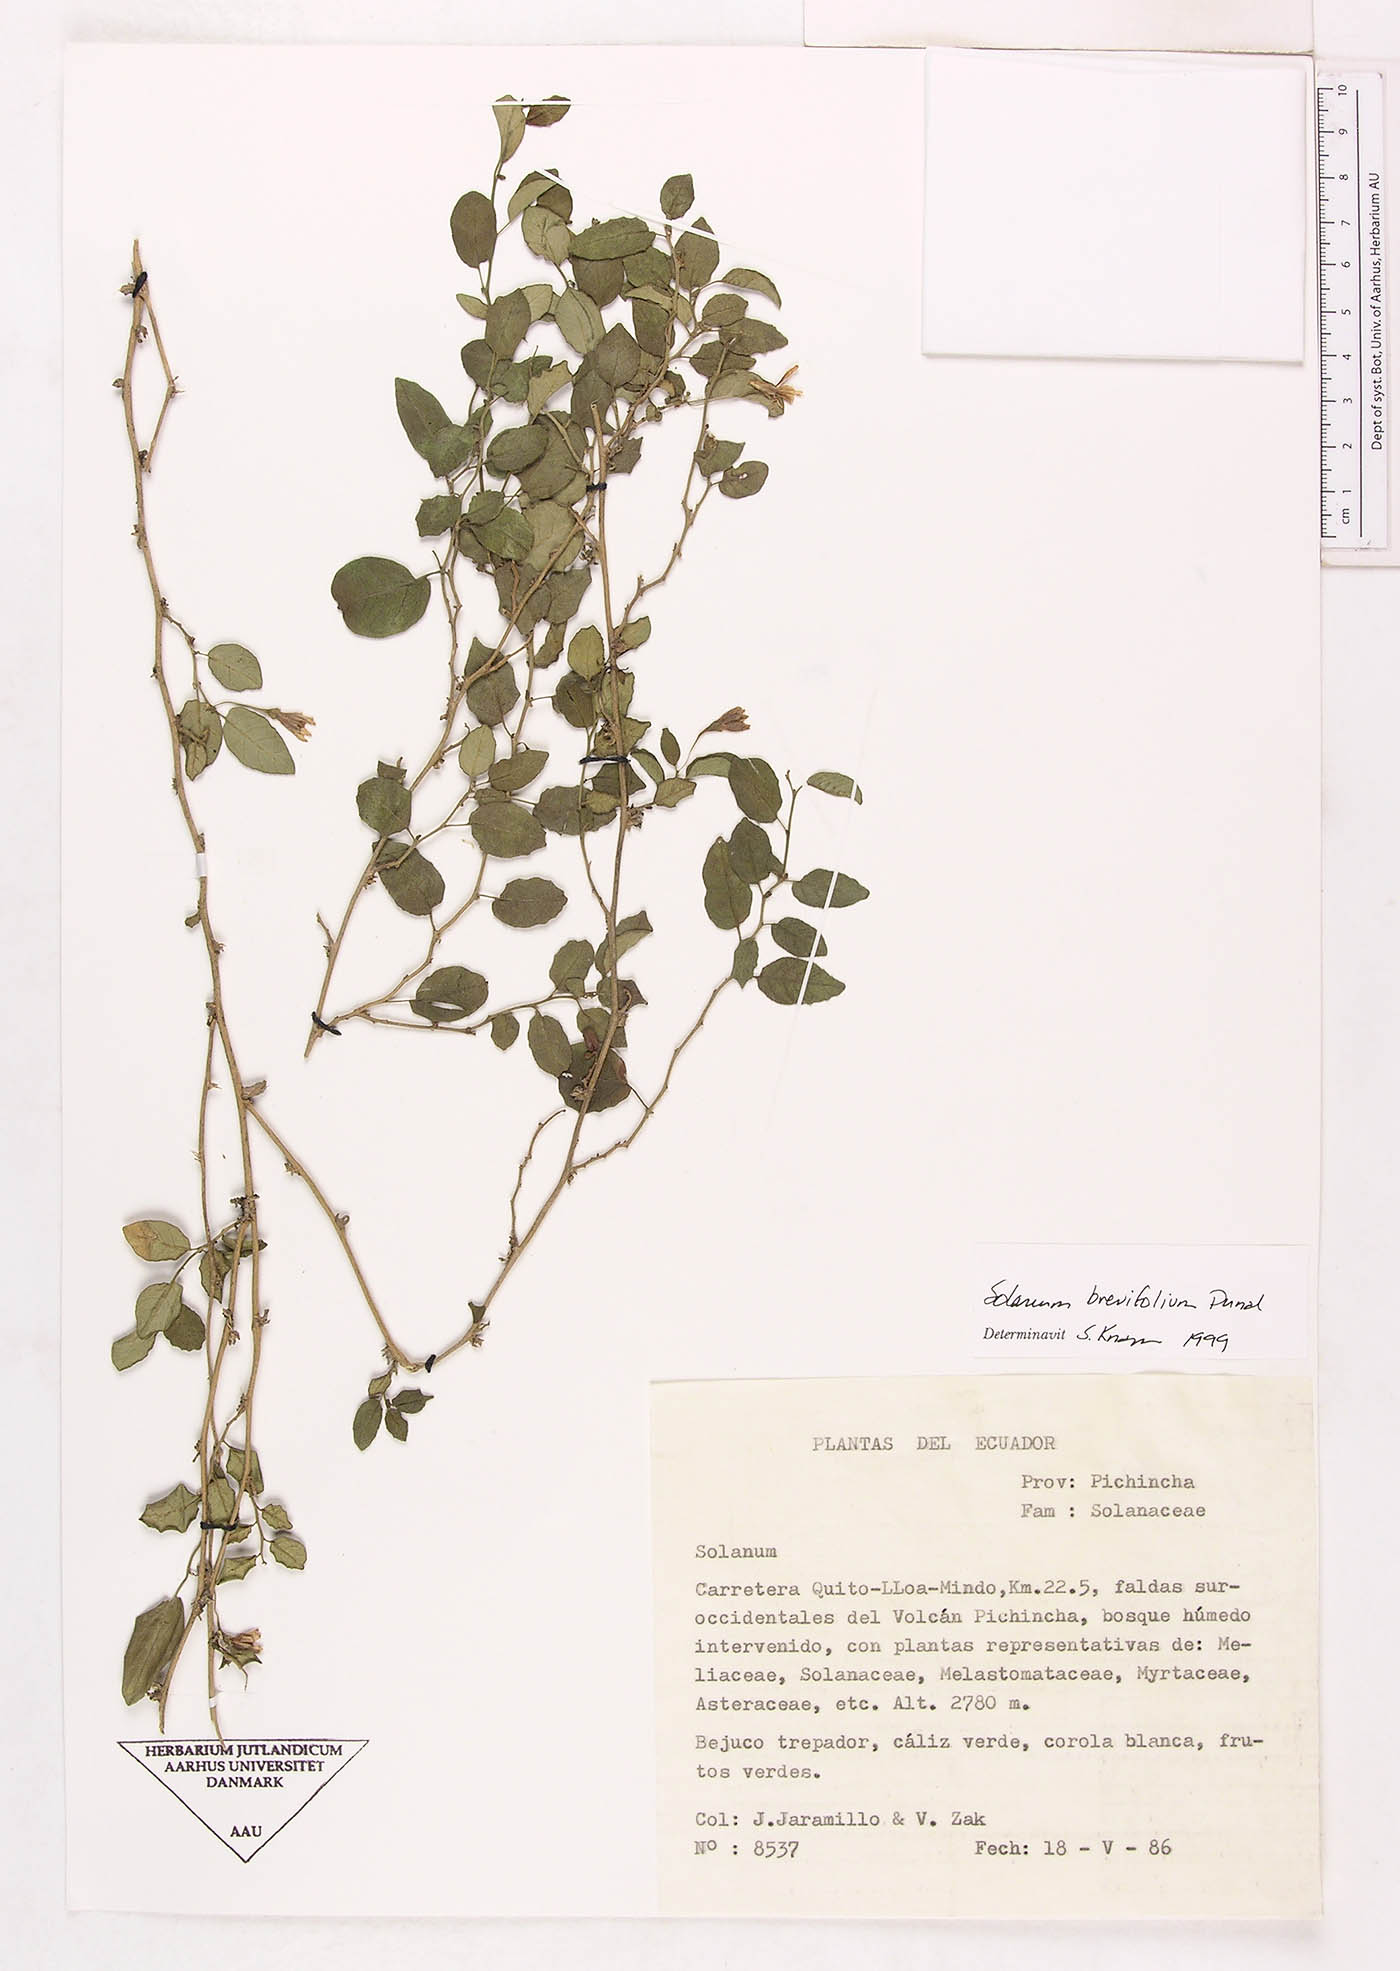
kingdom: Plantae
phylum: Tracheophyta
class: Magnoliopsida
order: Solanales
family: Solanaceae
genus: Solanum
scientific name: Solanum brevifolium
